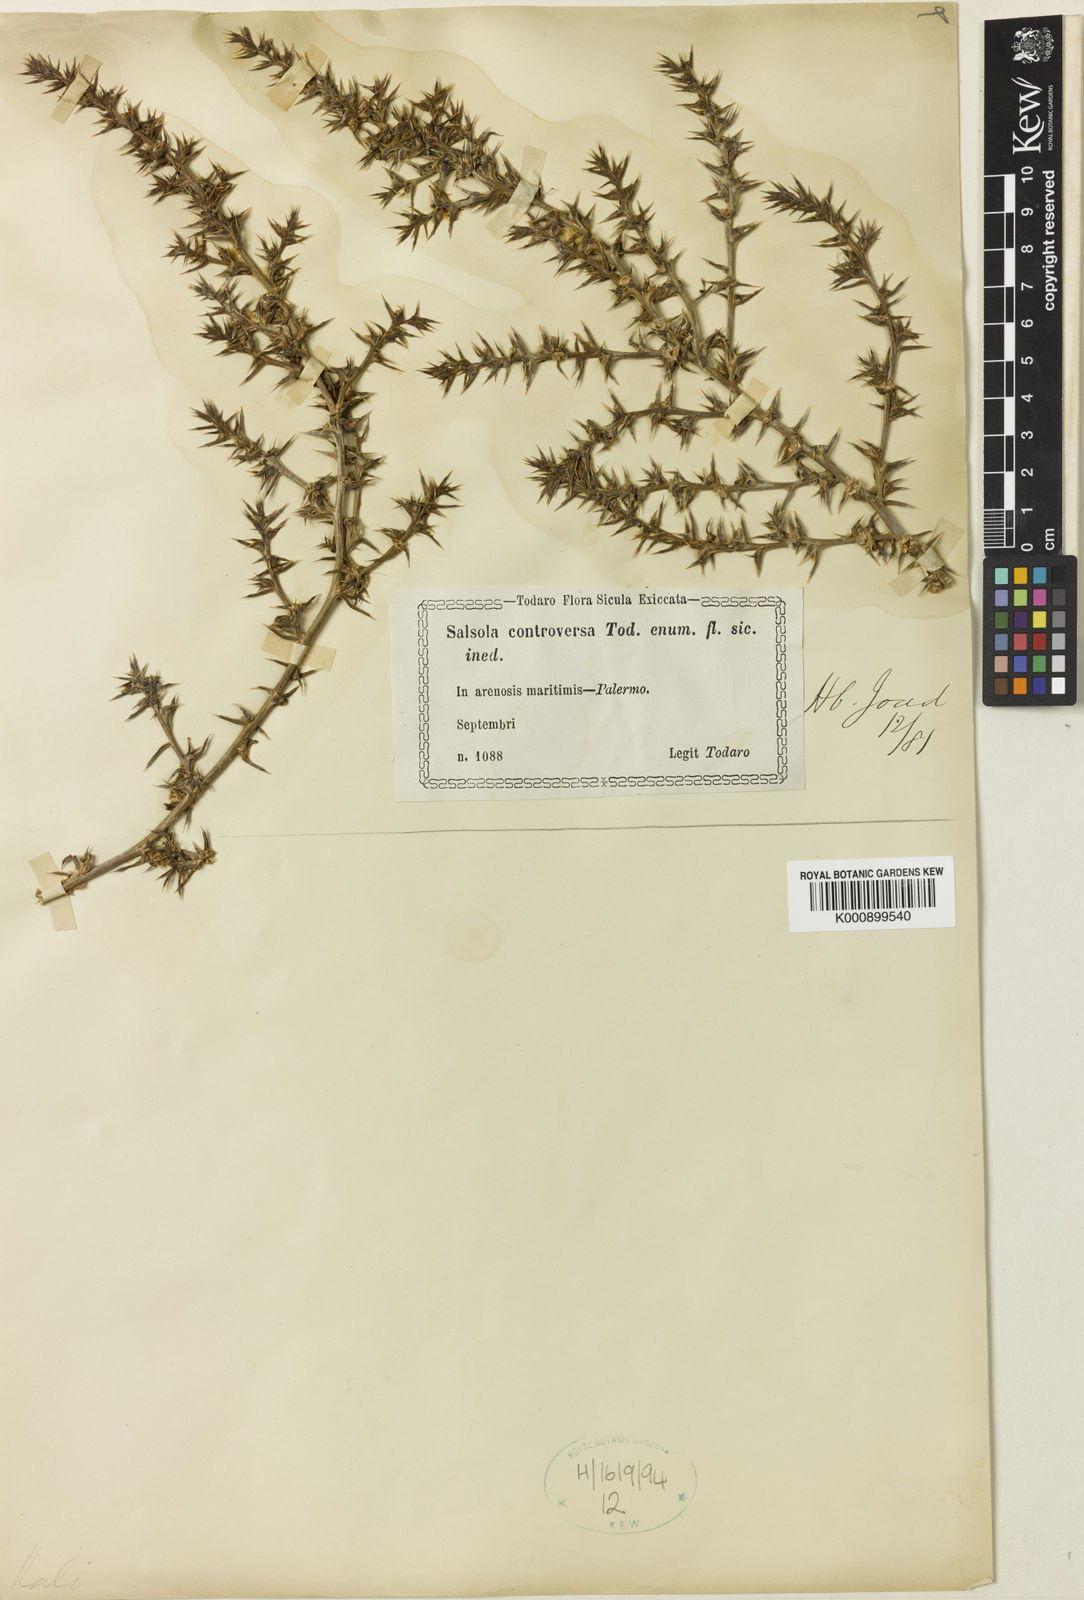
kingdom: Plantae
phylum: Tracheophyta
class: Magnoliopsida
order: Caryophyllales
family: Amaranthaceae
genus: Salsola
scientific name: Salsola kali
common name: Saltwort
